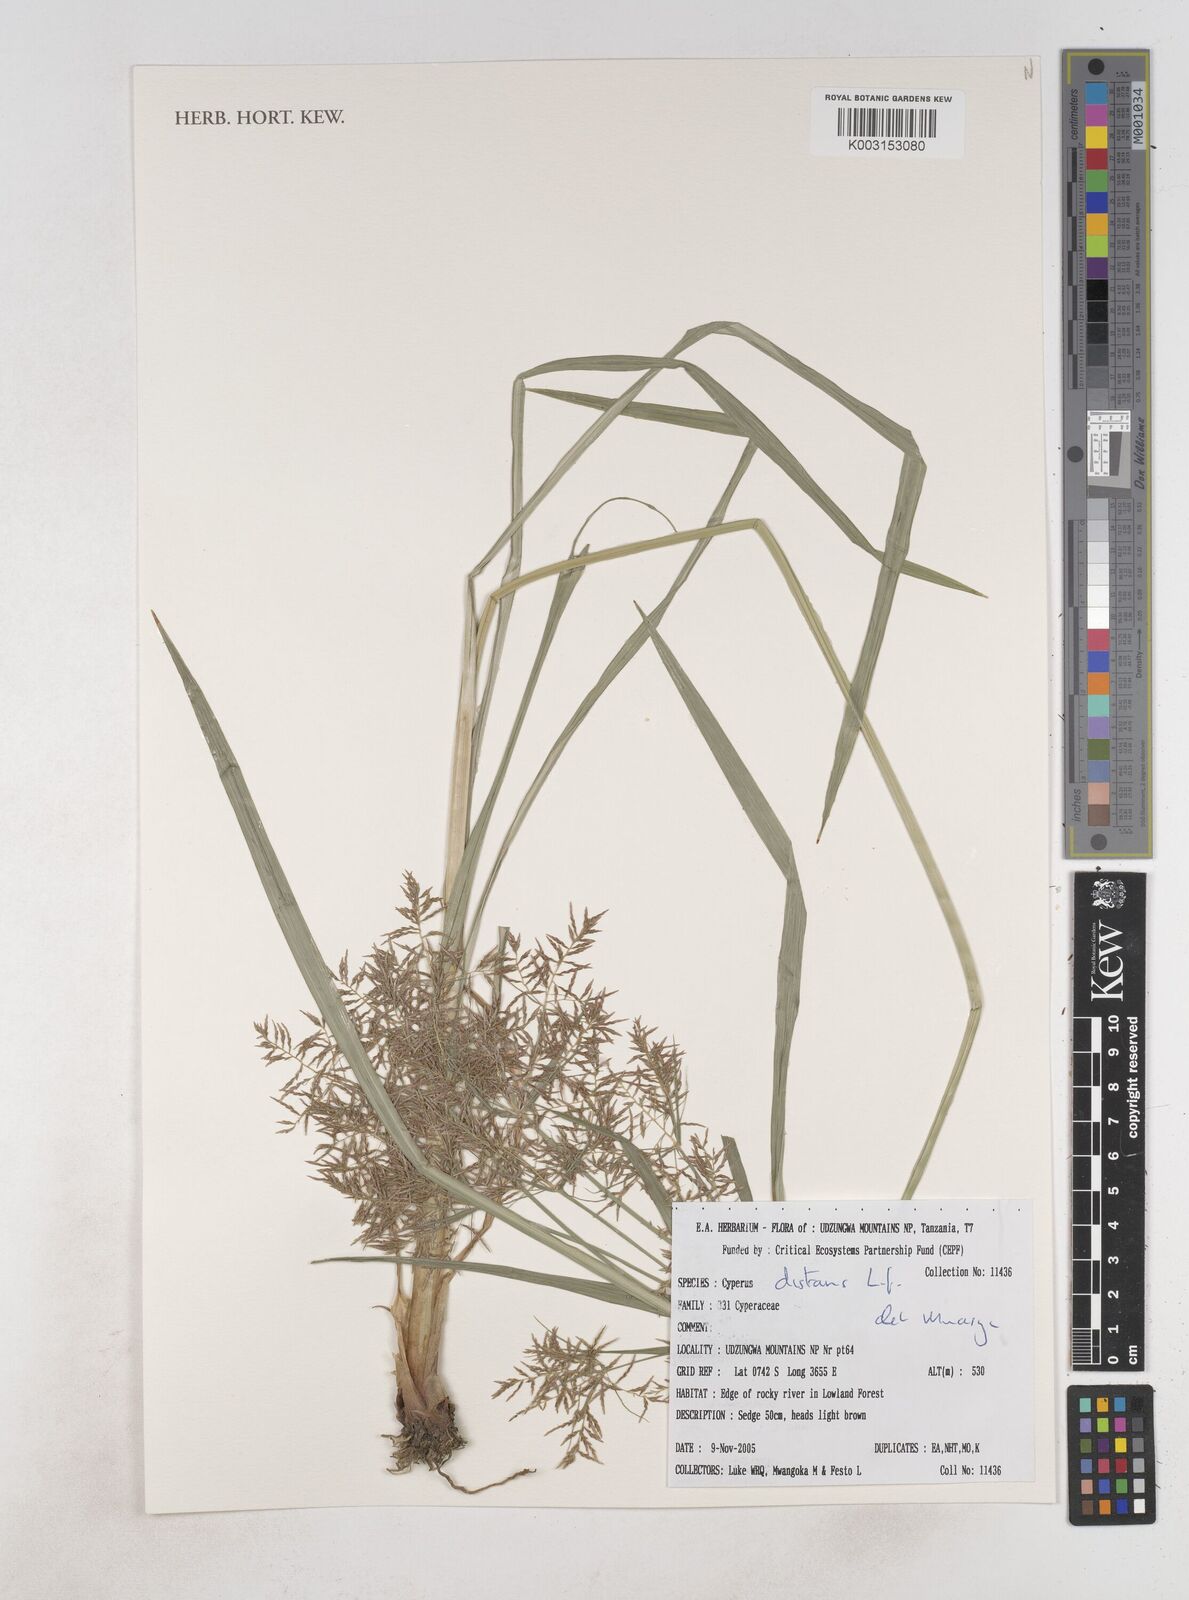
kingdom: Plantae
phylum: Tracheophyta
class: Liliopsida
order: Poales
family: Cyperaceae
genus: Cyperus
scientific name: Cyperus distans
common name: Slender cyperus
